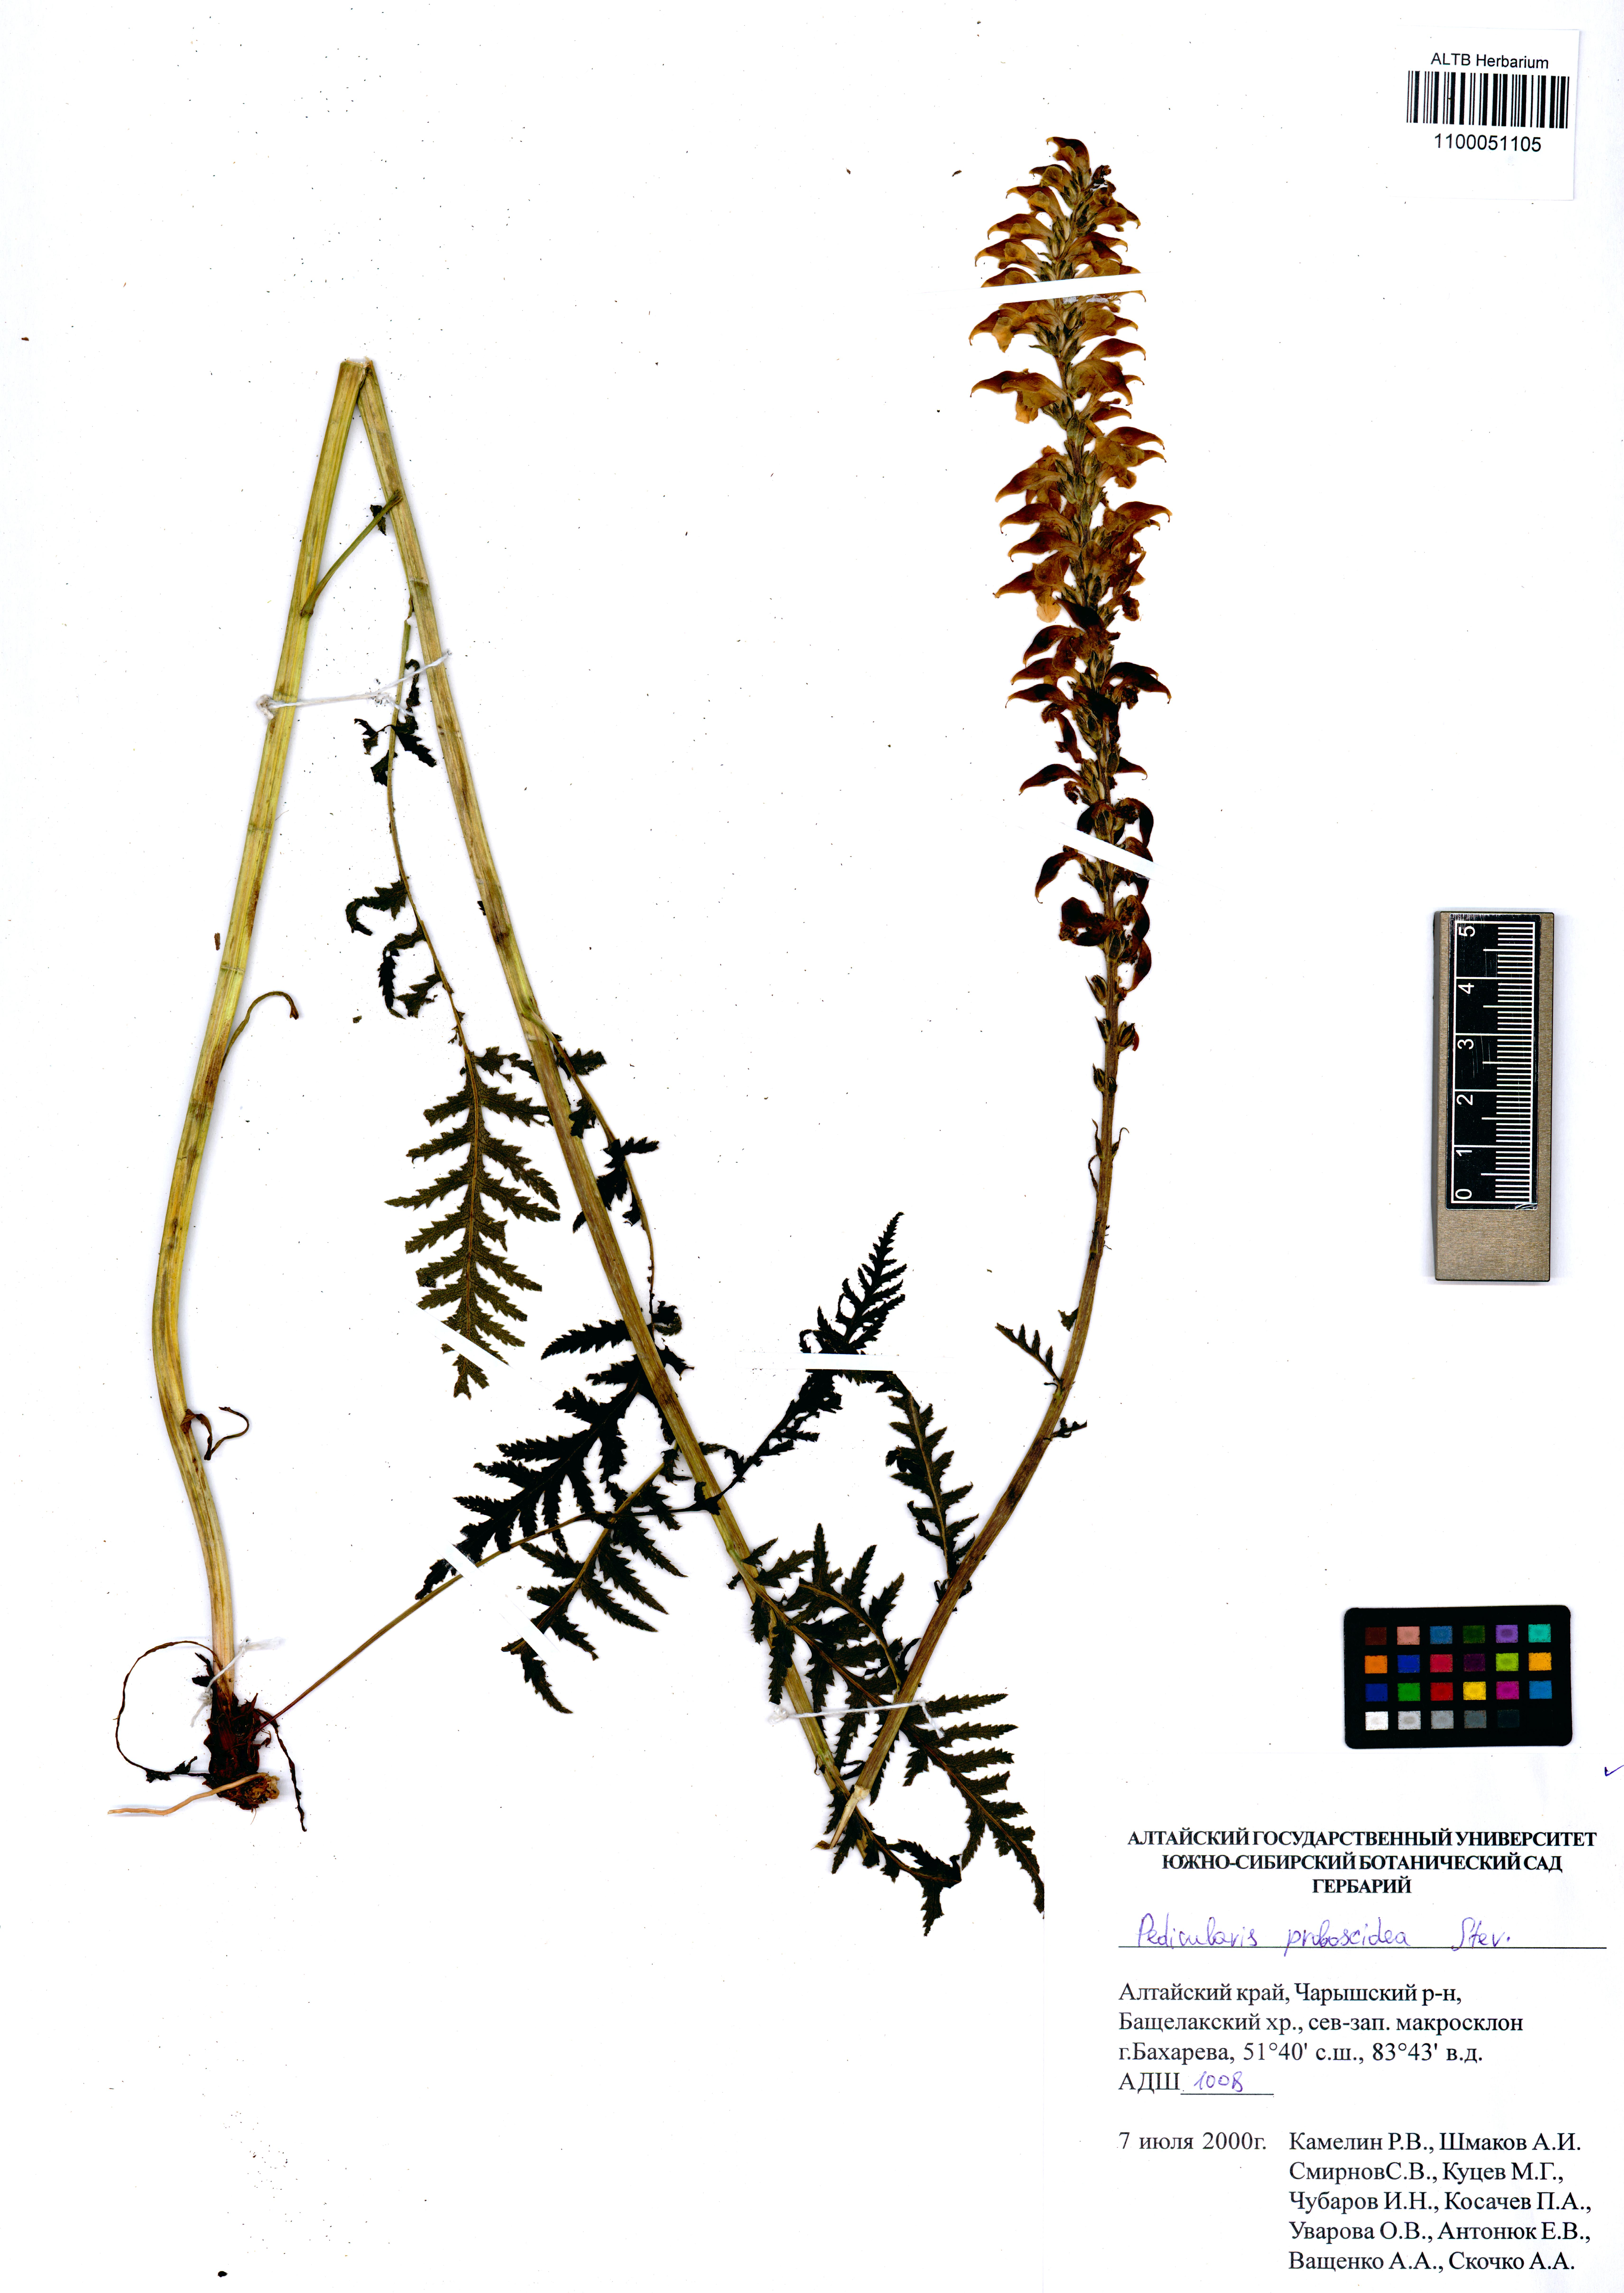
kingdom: Plantae
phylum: Tracheophyta
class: Magnoliopsida
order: Lamiales
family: Orobanchaceae
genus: Pedicularis
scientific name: Pedicularis proboscidea
